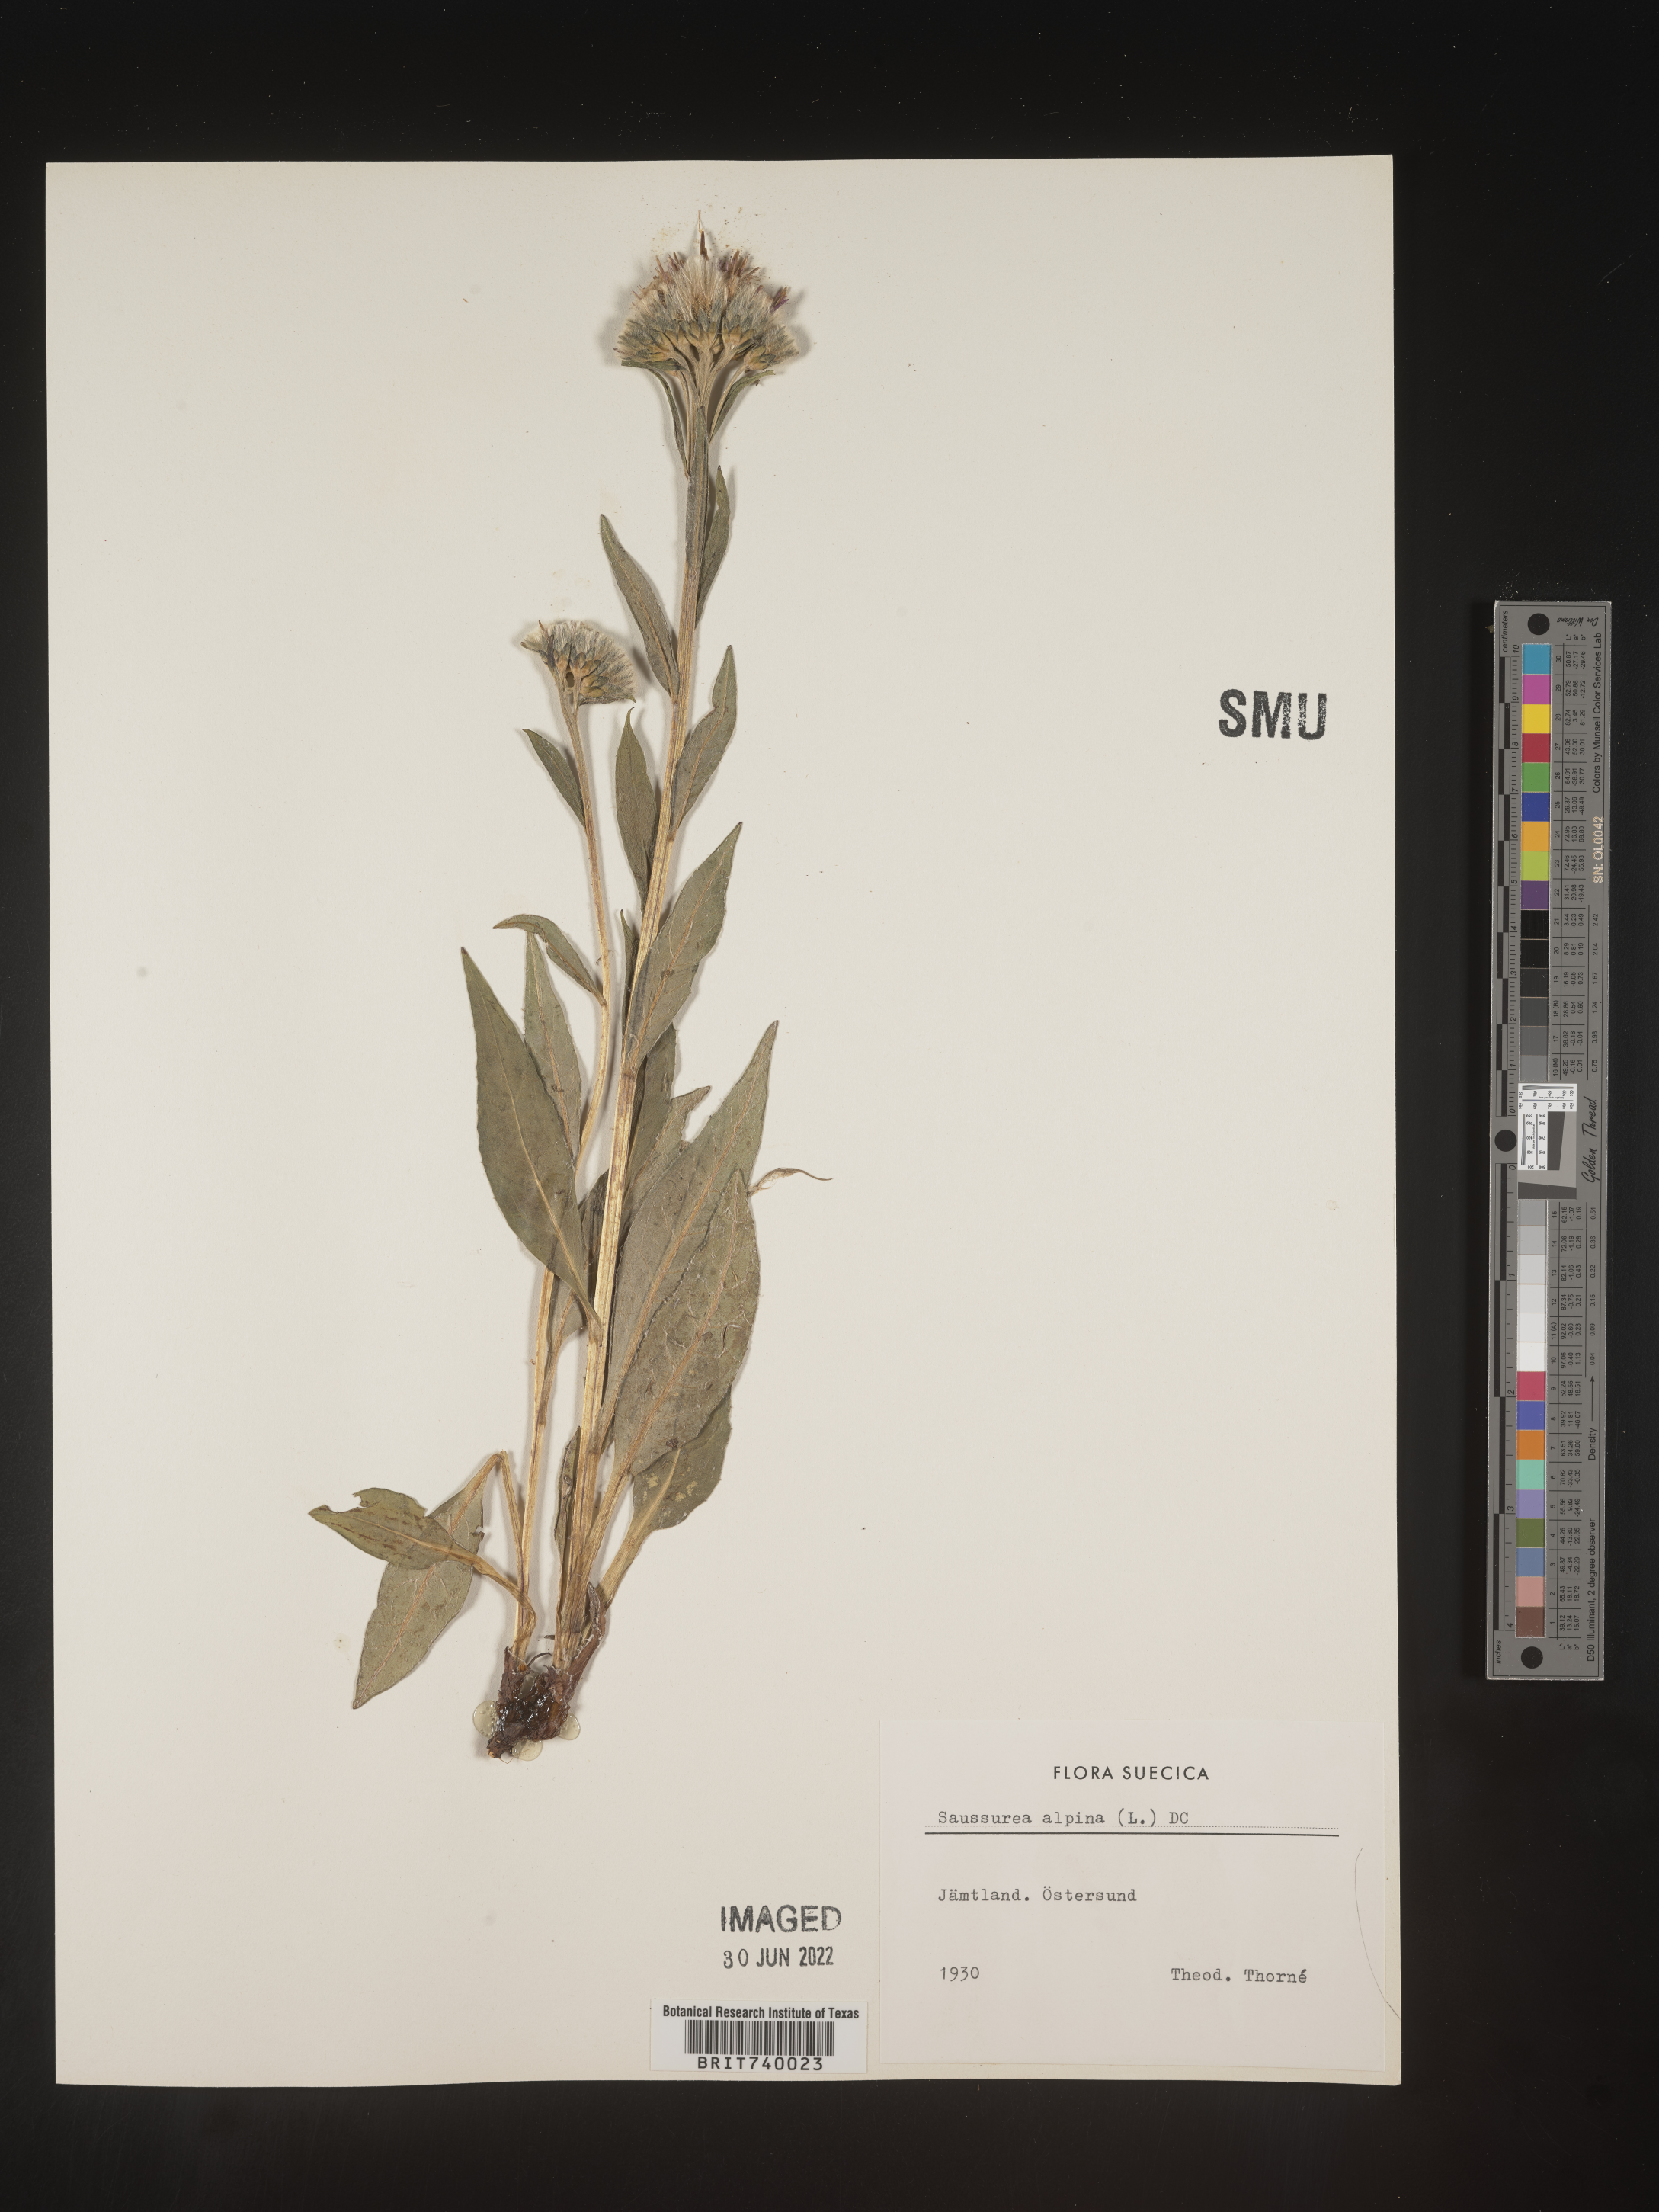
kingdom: Plantae
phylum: Tracheophyta
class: Magnoliopsida
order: Asterales
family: Asteraceae
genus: Saussurea
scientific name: Saussurea
